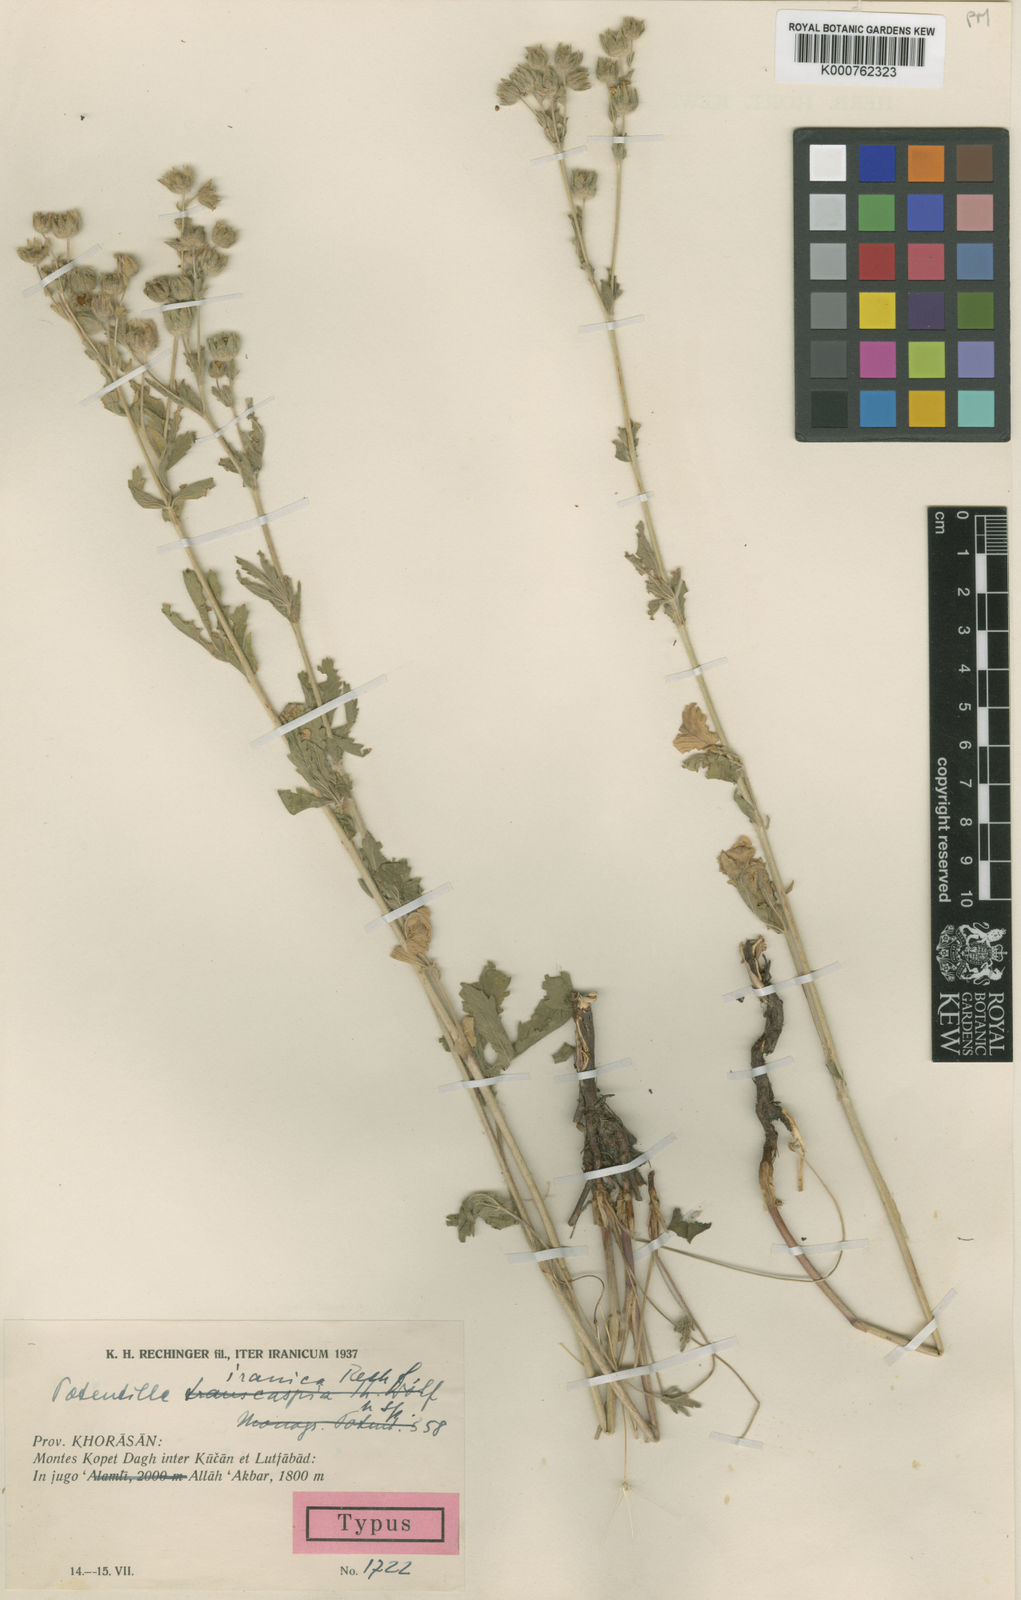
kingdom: Plantae
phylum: Tracheophyta
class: Magnoliopsida
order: Rosales
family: Rosaceae
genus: Potentilla
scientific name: Potentilla iranica
